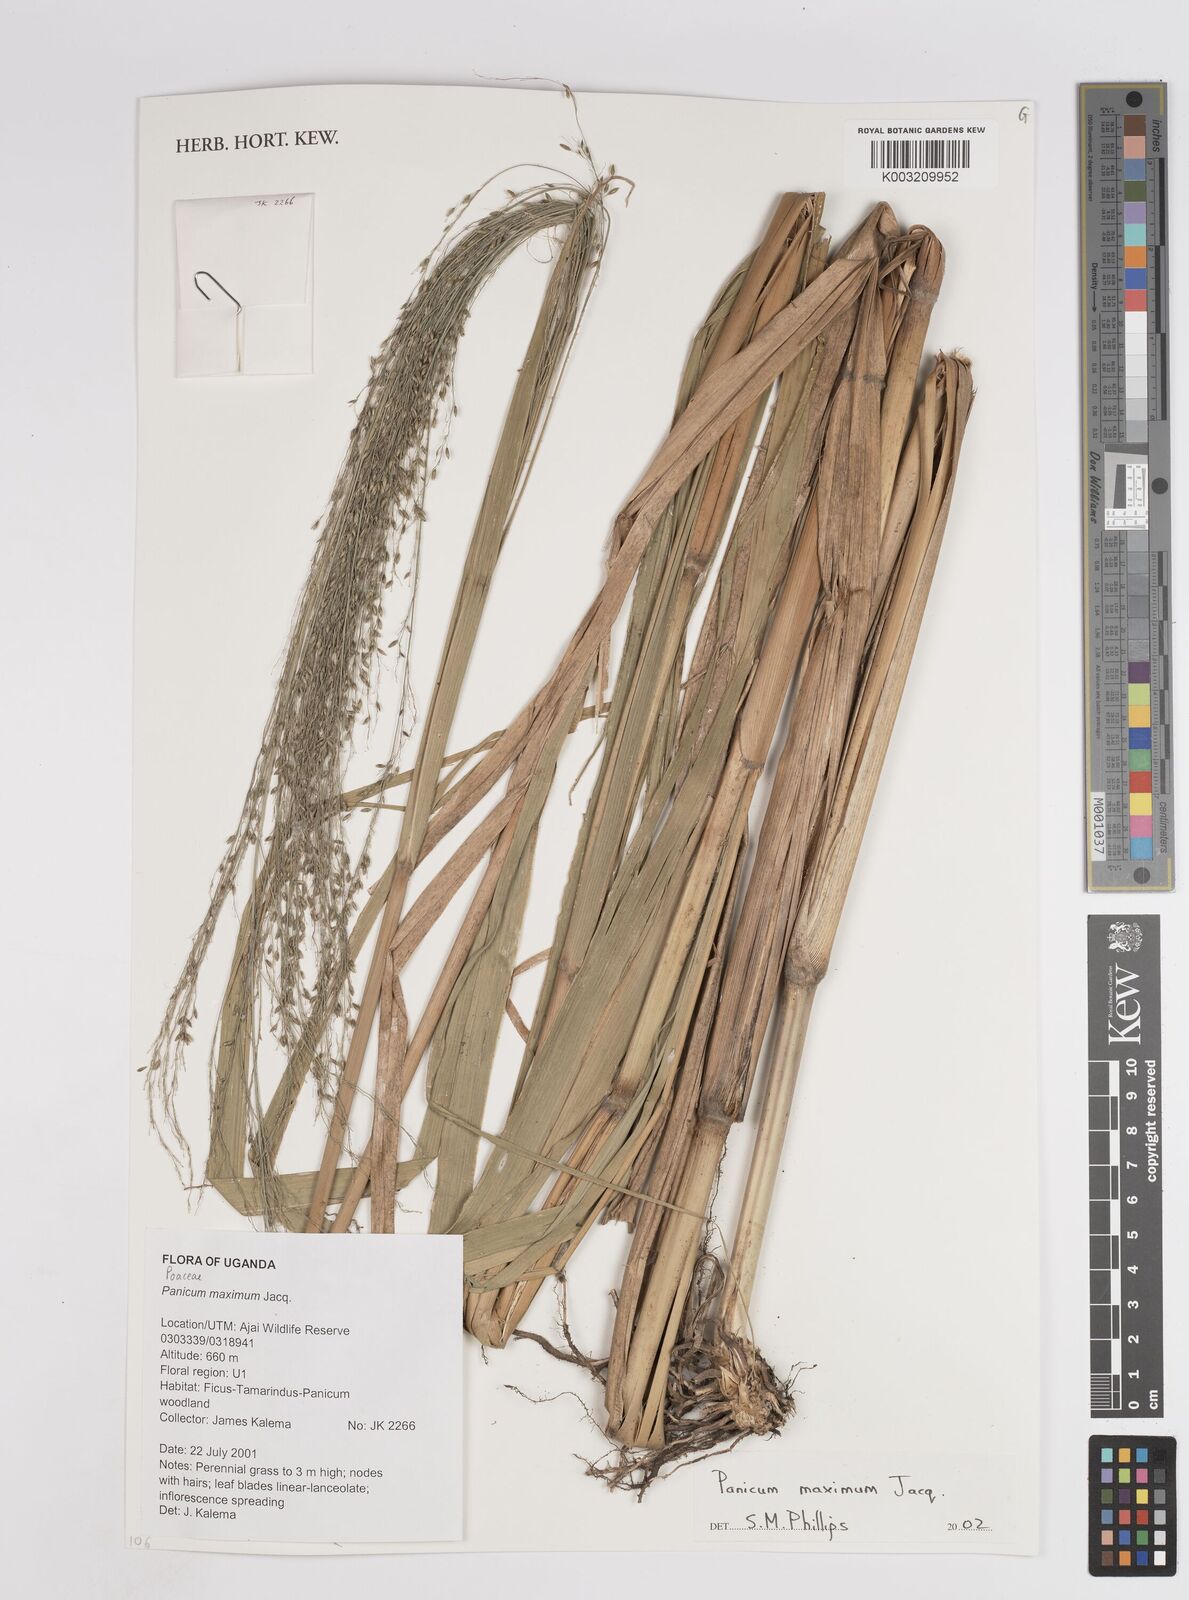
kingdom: Plantae
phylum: Tracheophyta
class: Liliopsida
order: Poales
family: Poaceae
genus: Megathyrsus
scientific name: Megathyrsus maximus
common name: Guineagrass
